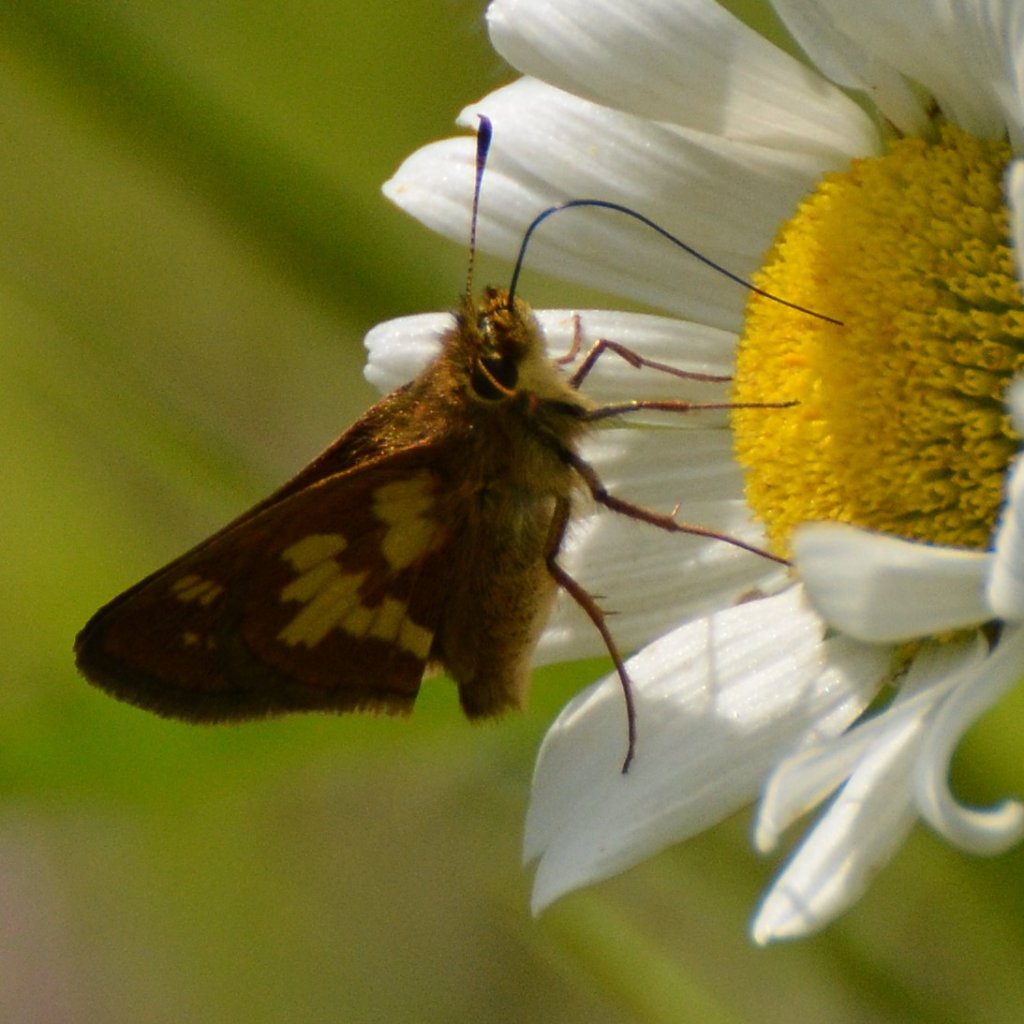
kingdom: Animalia
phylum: Arthropoda
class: Insecta
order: Lepidoptera
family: Hesperiidae
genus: Polites
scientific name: Polites coras
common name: Peck's Skipper
